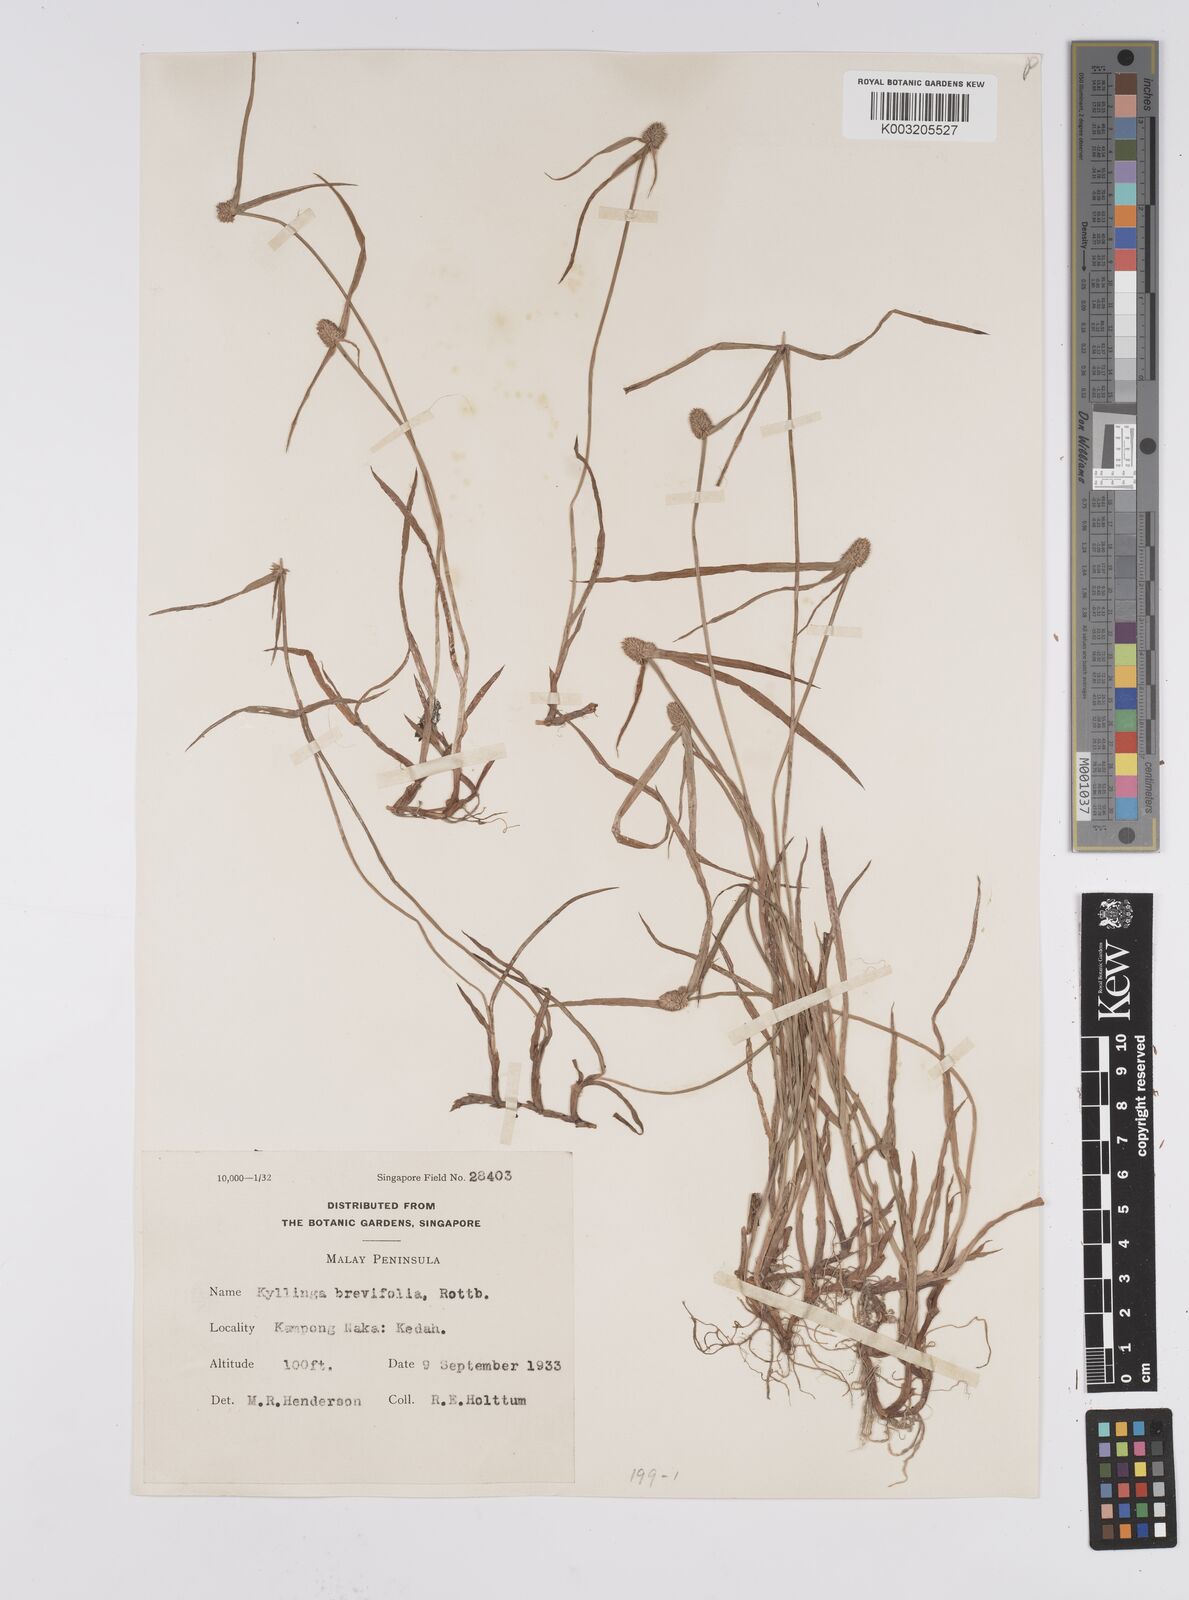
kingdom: Plantae
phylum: Tracheophyta
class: Liliopsida
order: Poales
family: Cyperaceae
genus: Cyperus
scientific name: Cyperus
